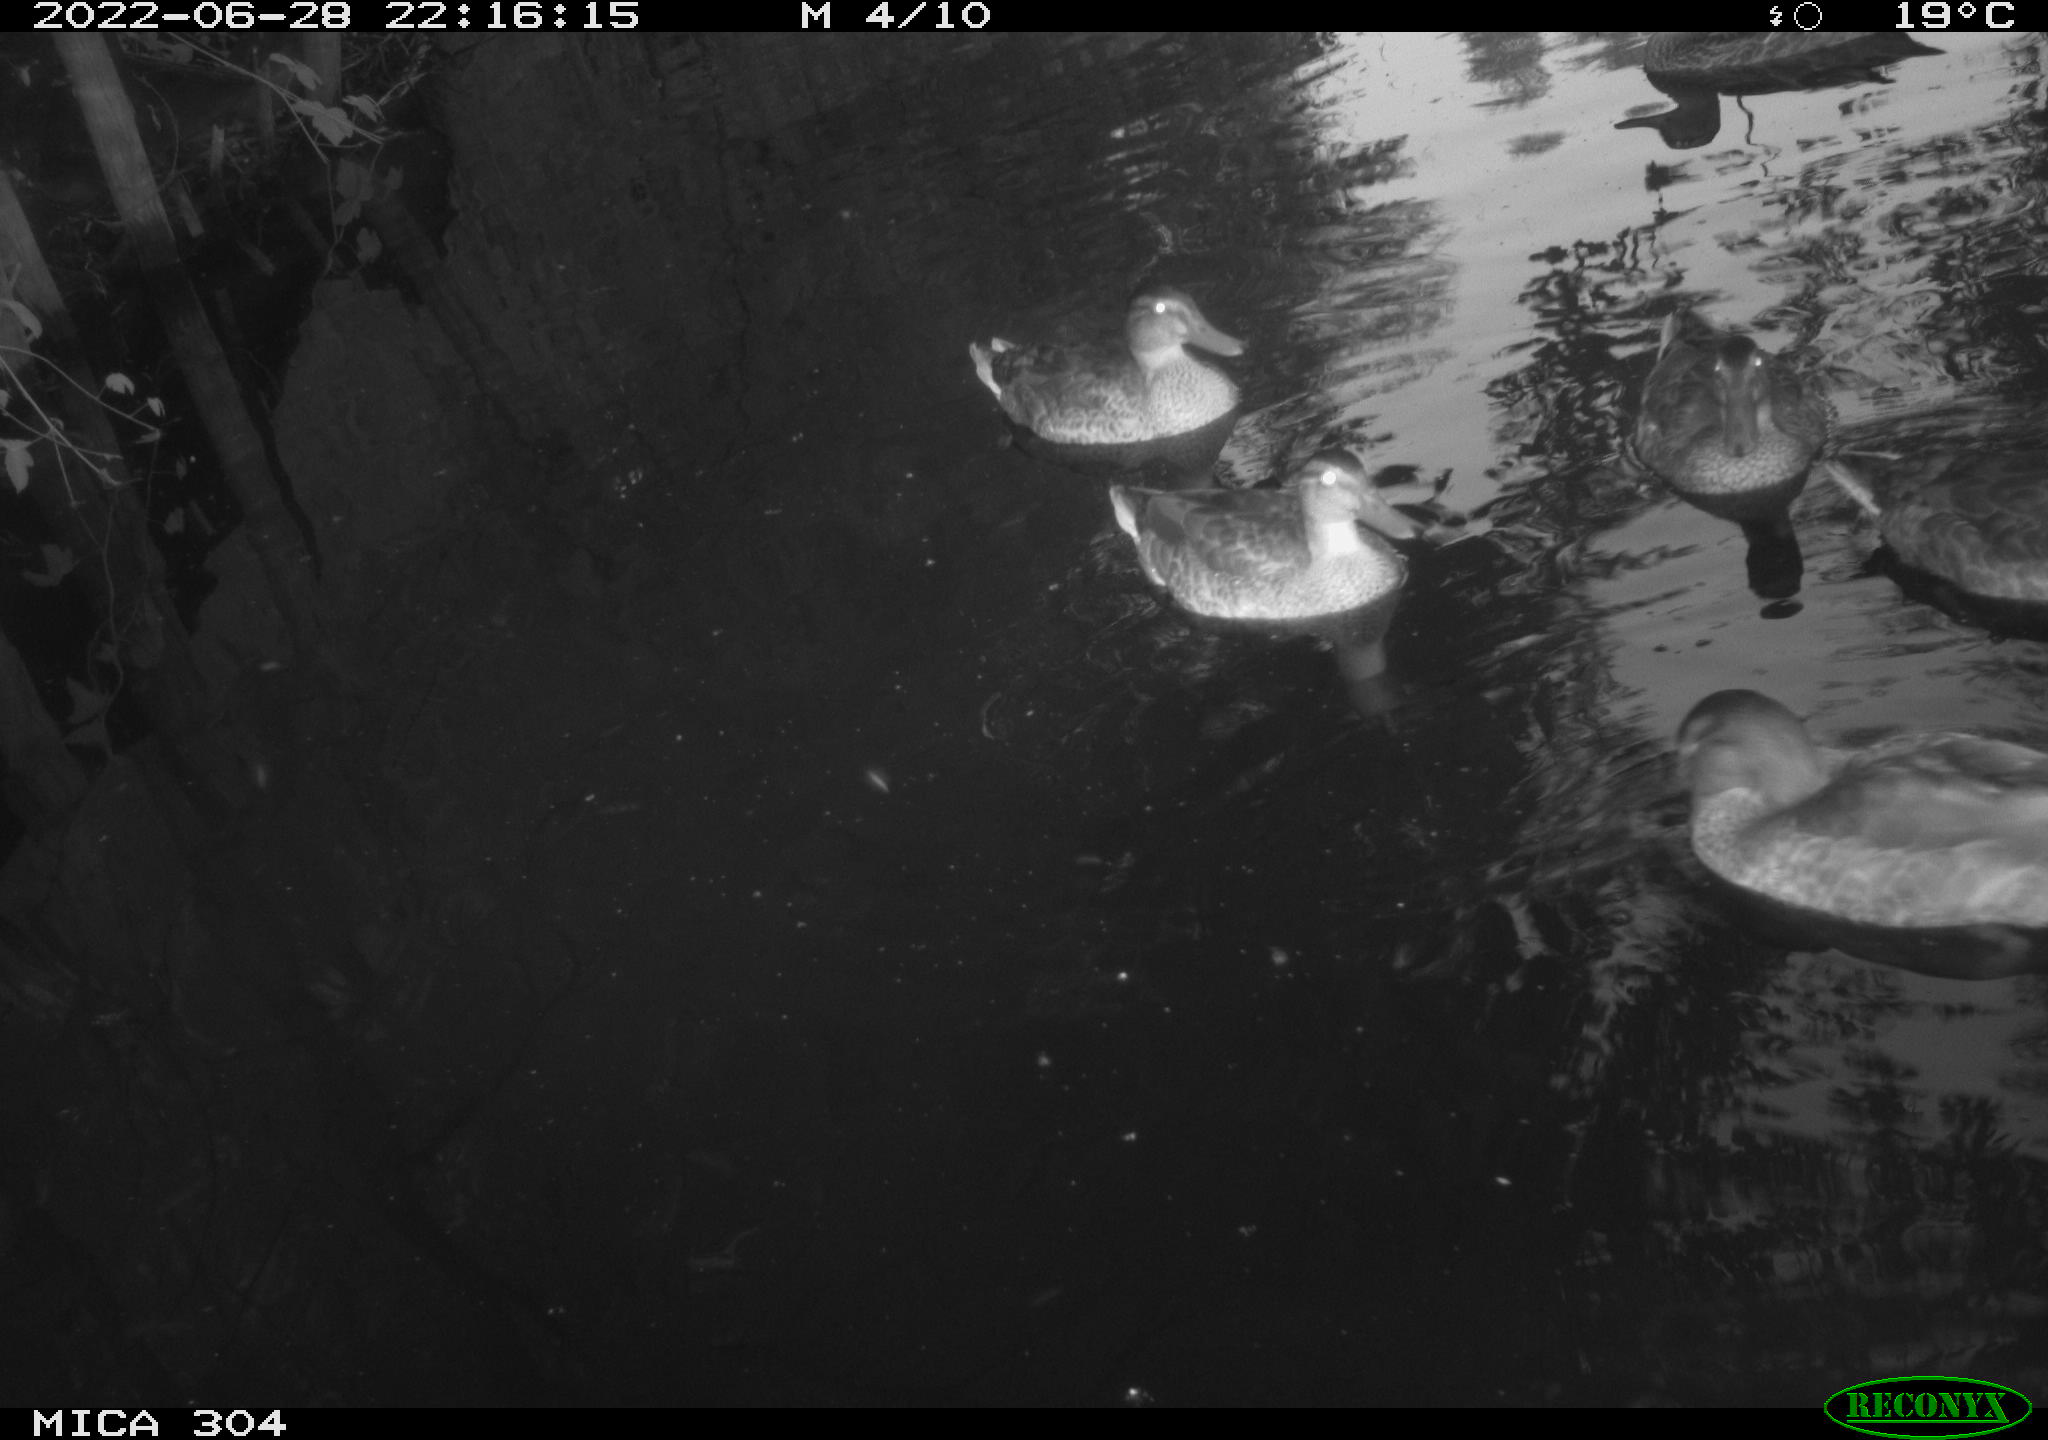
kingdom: Animalia
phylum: Chordata
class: Aves
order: Anseriformes
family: Anatidae
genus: Anas
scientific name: Anas platyrhynchos
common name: Mallard
